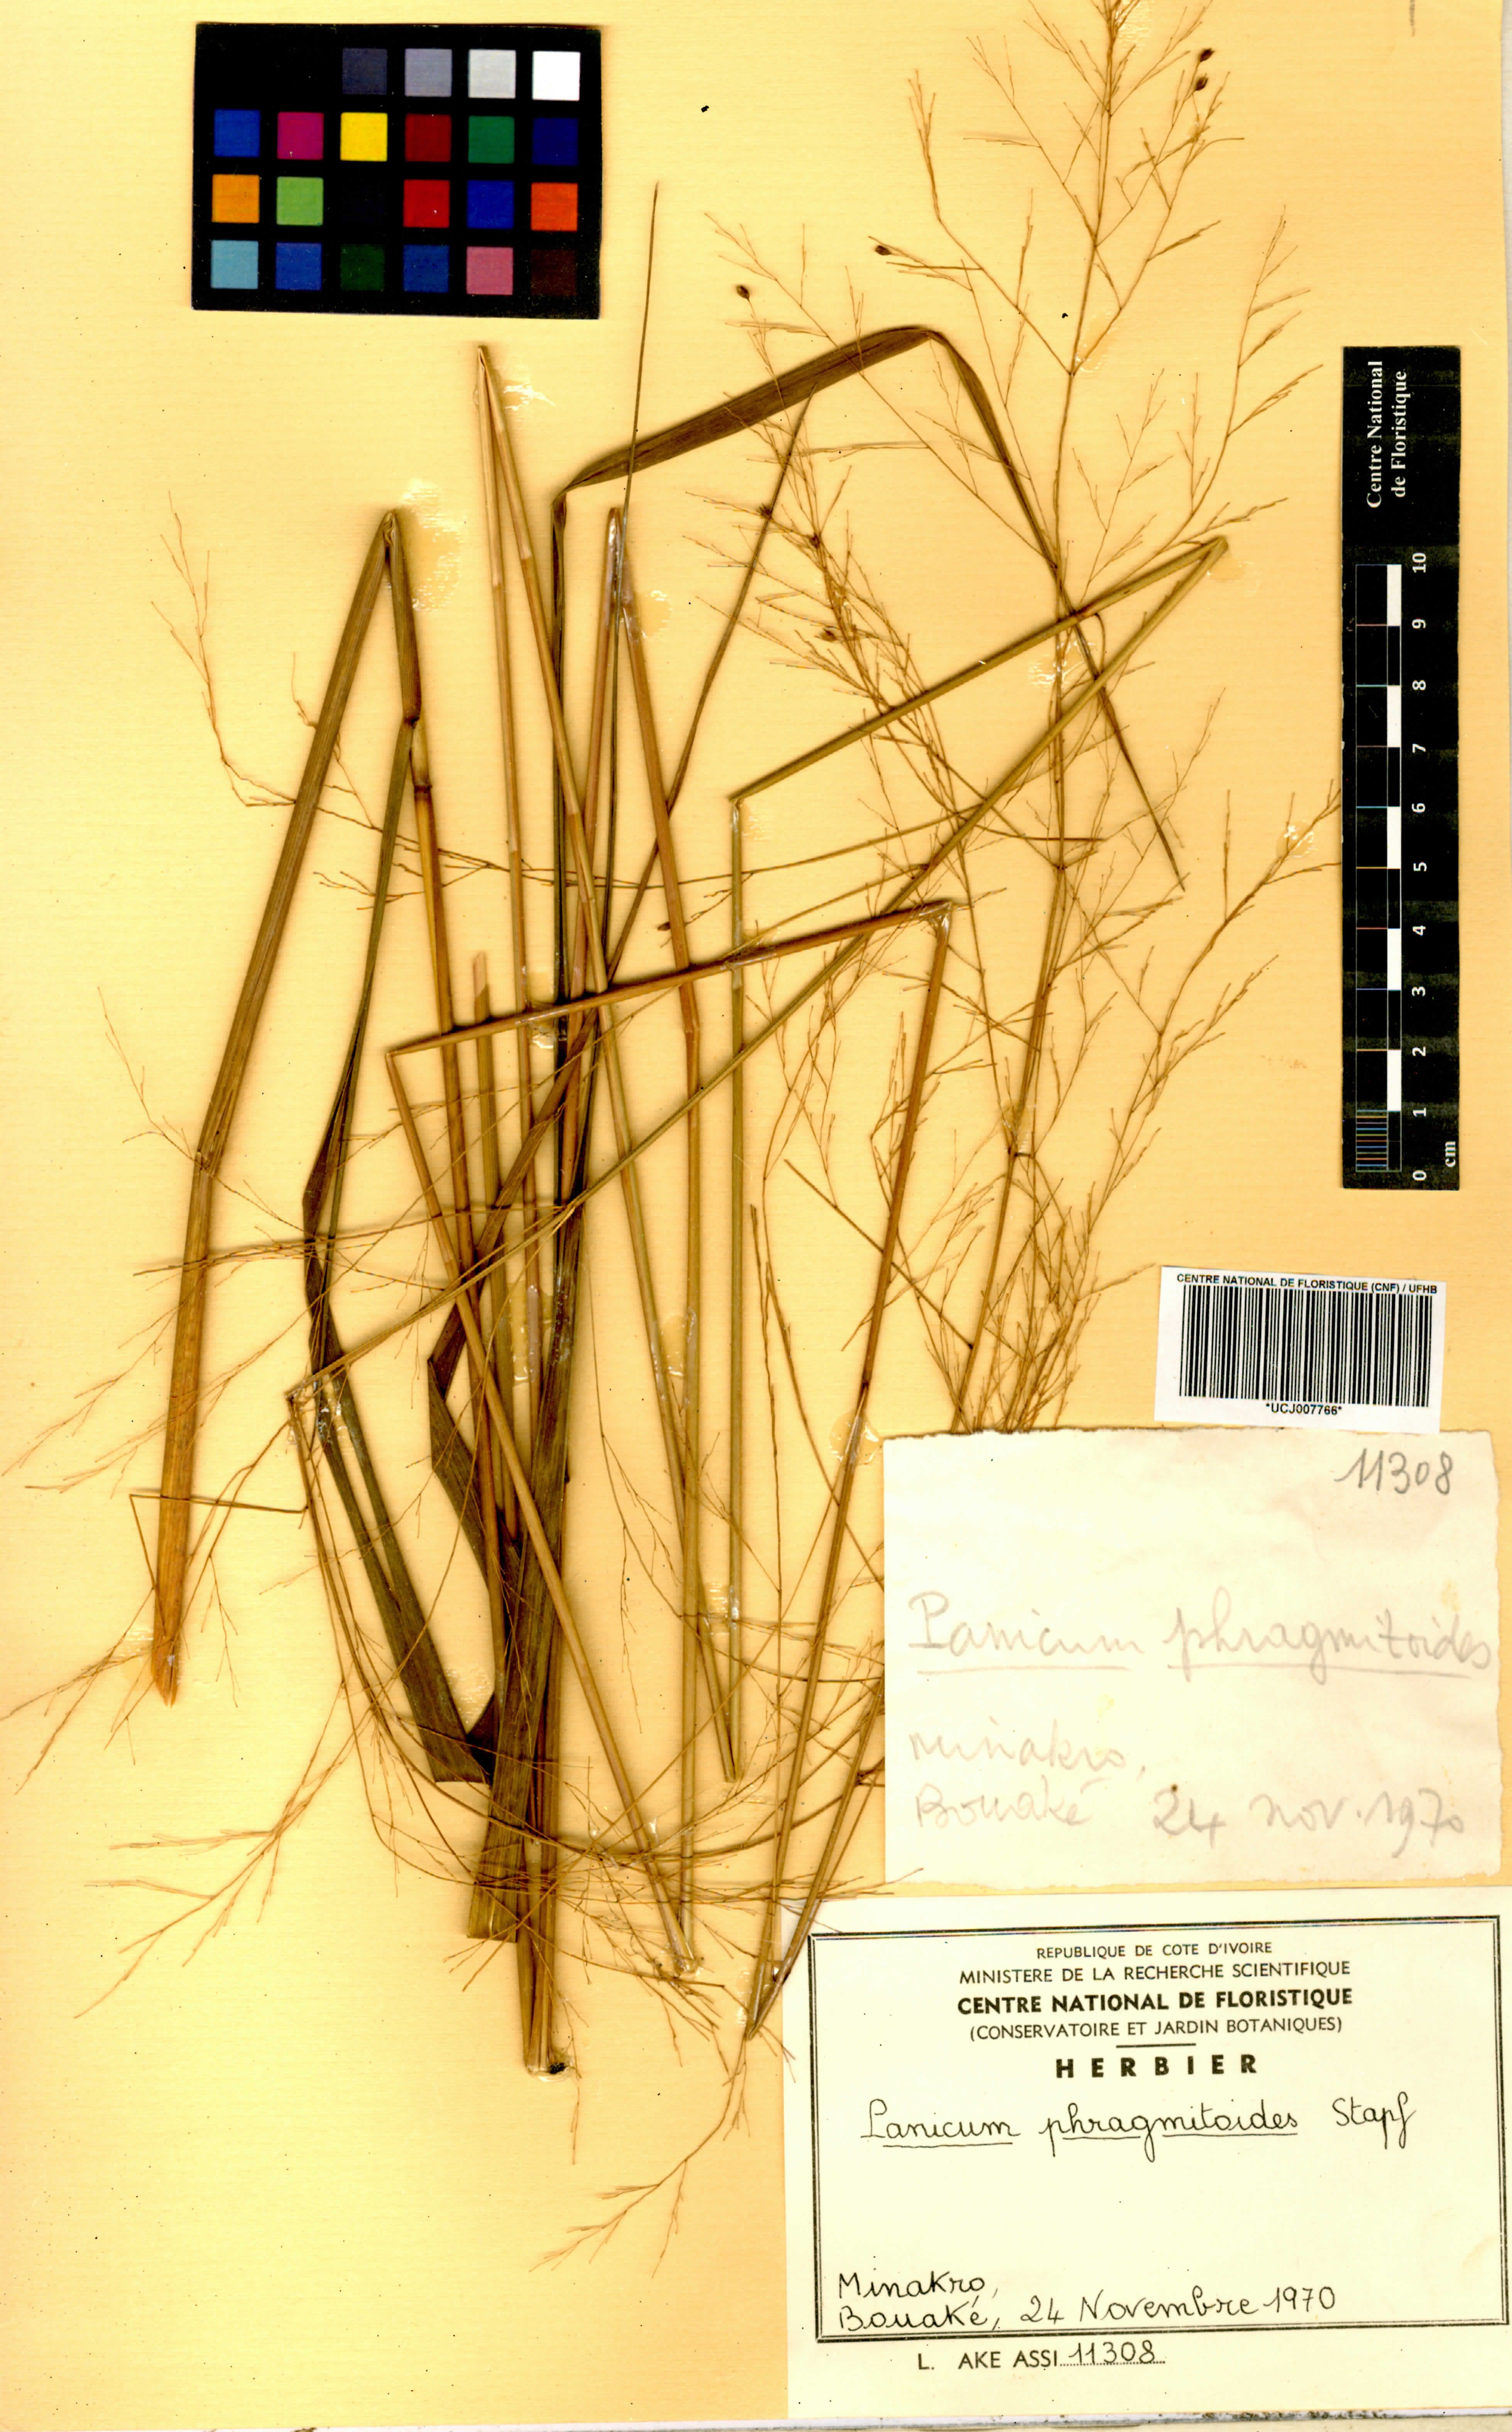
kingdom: Plantae
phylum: Tracheophyta
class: Liliopsida
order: Poales
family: Poaceae
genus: Panicum
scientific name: Panicum phragmitoides
